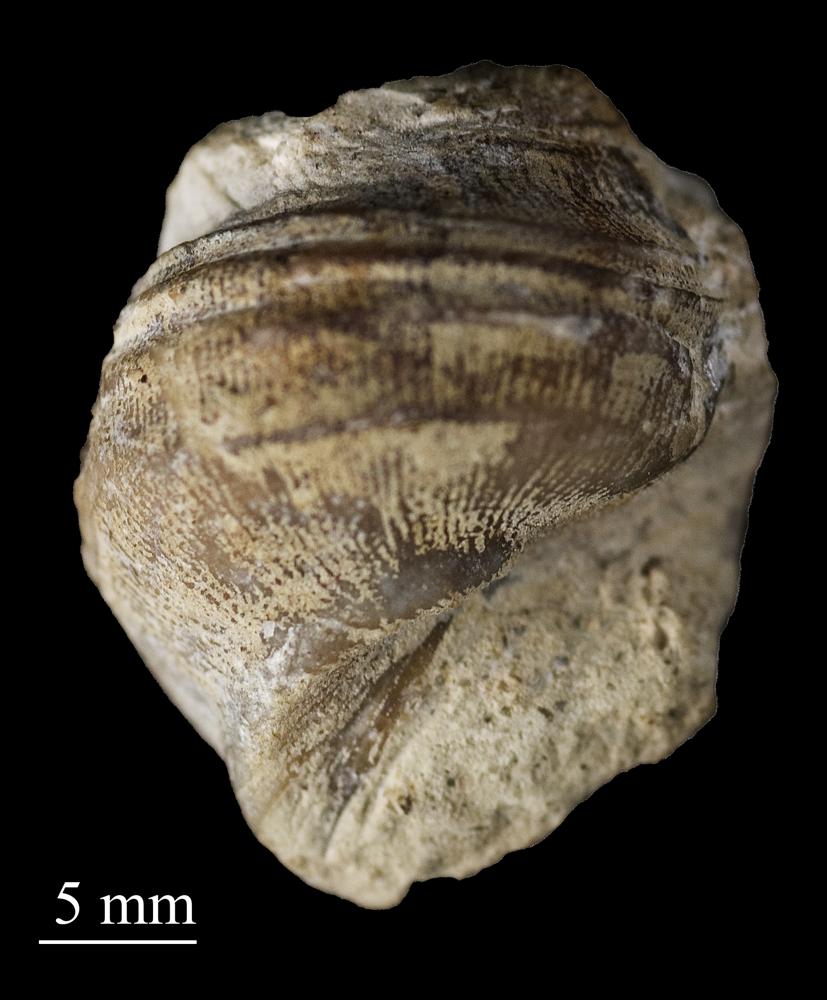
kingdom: Animalia
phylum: Mollusca
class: Gastropoda
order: Pleurotomariida
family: Phanerotrematidae
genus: Brachytomaria
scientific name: Brachytomaria nodulosa
